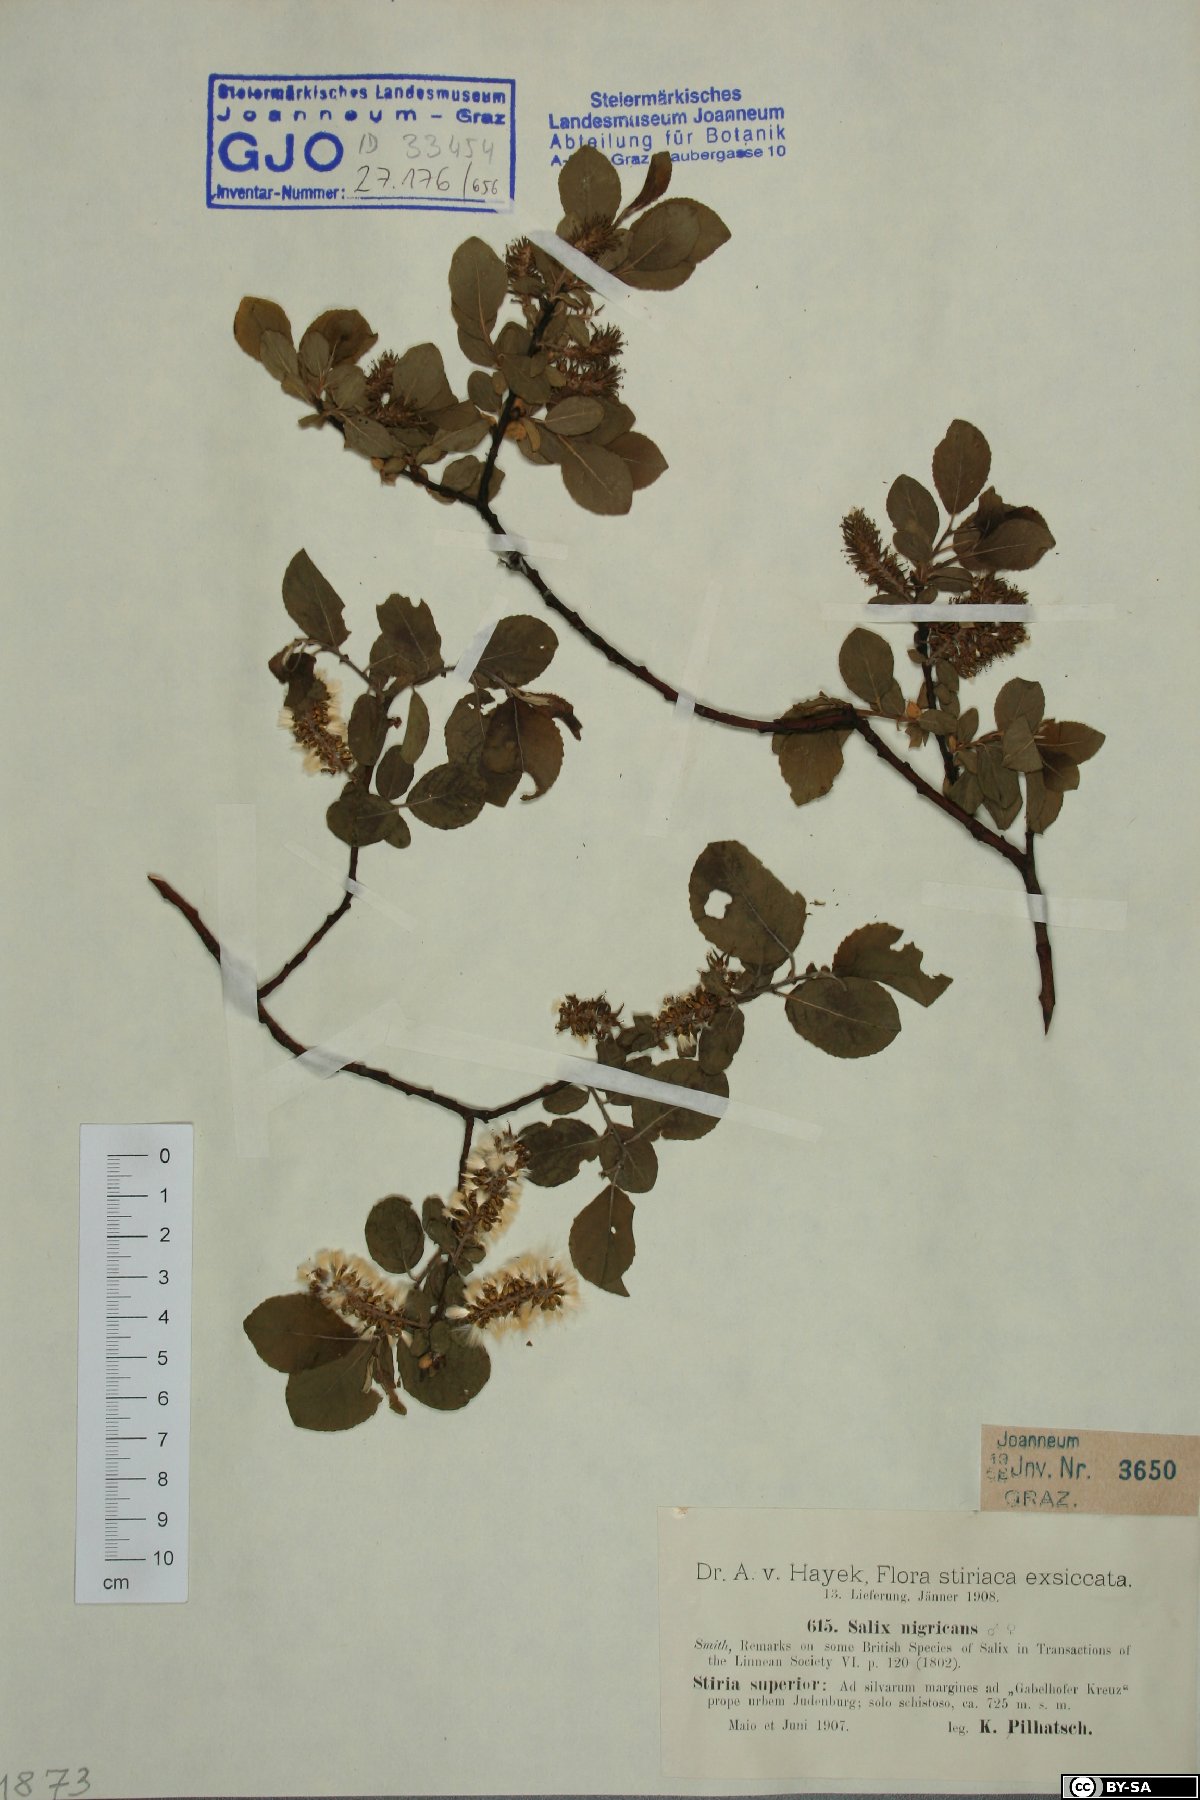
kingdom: Plantae
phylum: Tracheophyta
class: Magnoliopsida
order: Malpighiales
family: Salicaceae
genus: Salix
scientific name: Salix myrsinifolia
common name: Dark-leaved willow
